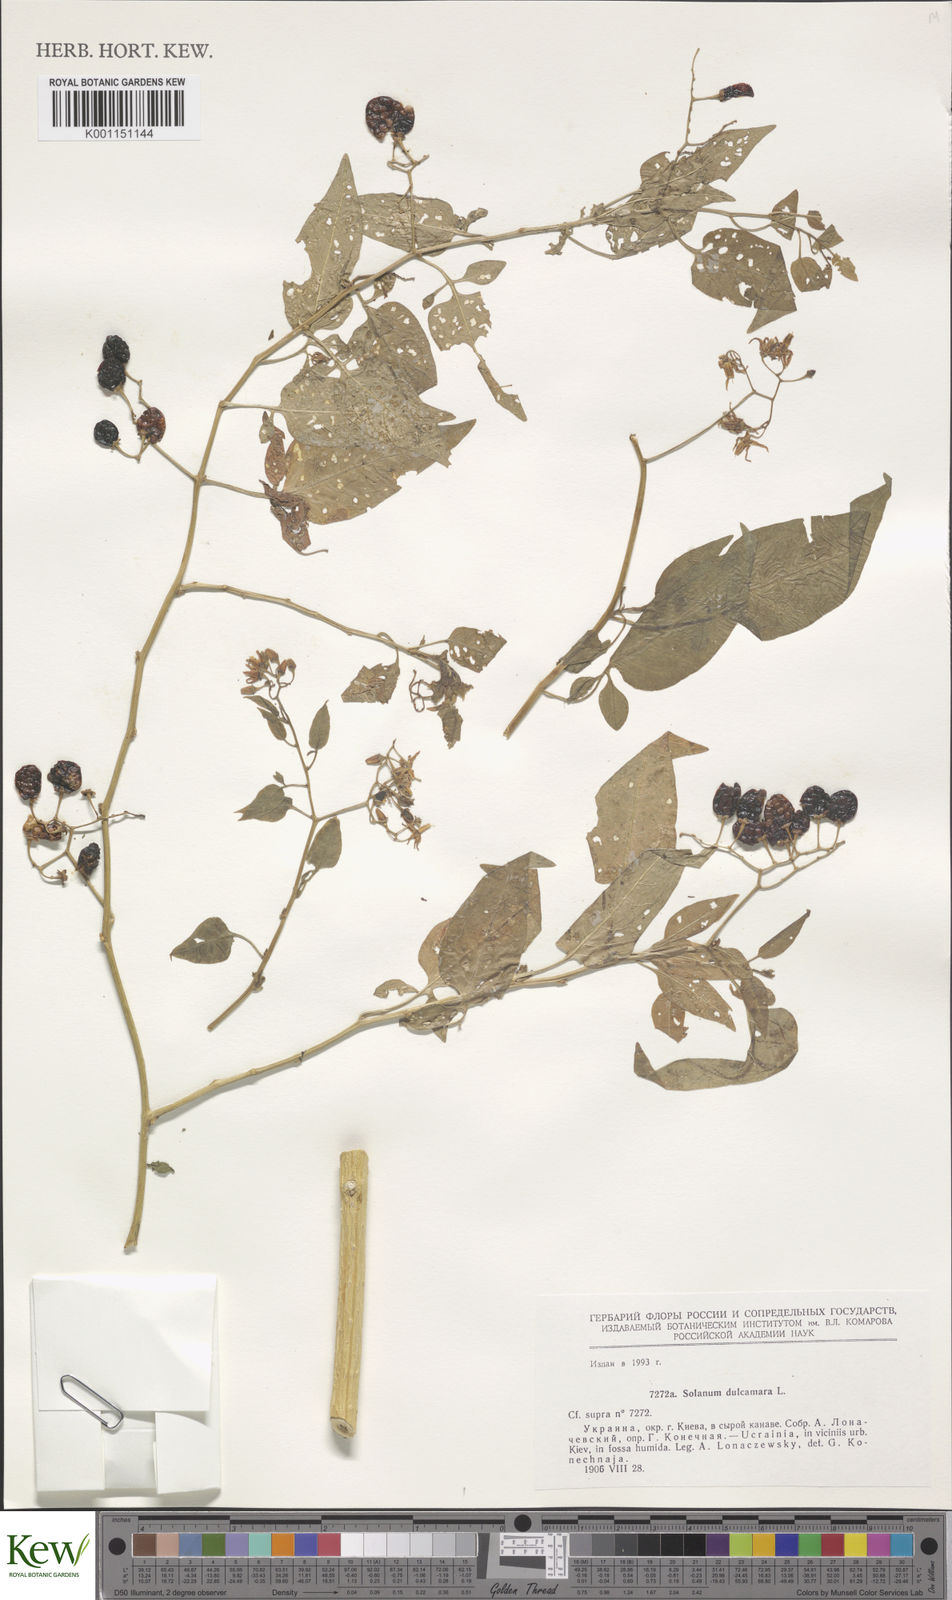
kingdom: Plantae
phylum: Tracheophyta
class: Magnoliopsida
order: Solanales
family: Solanaceae
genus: Solanum
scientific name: Solanum dulcamara
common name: Climbing nightshade
